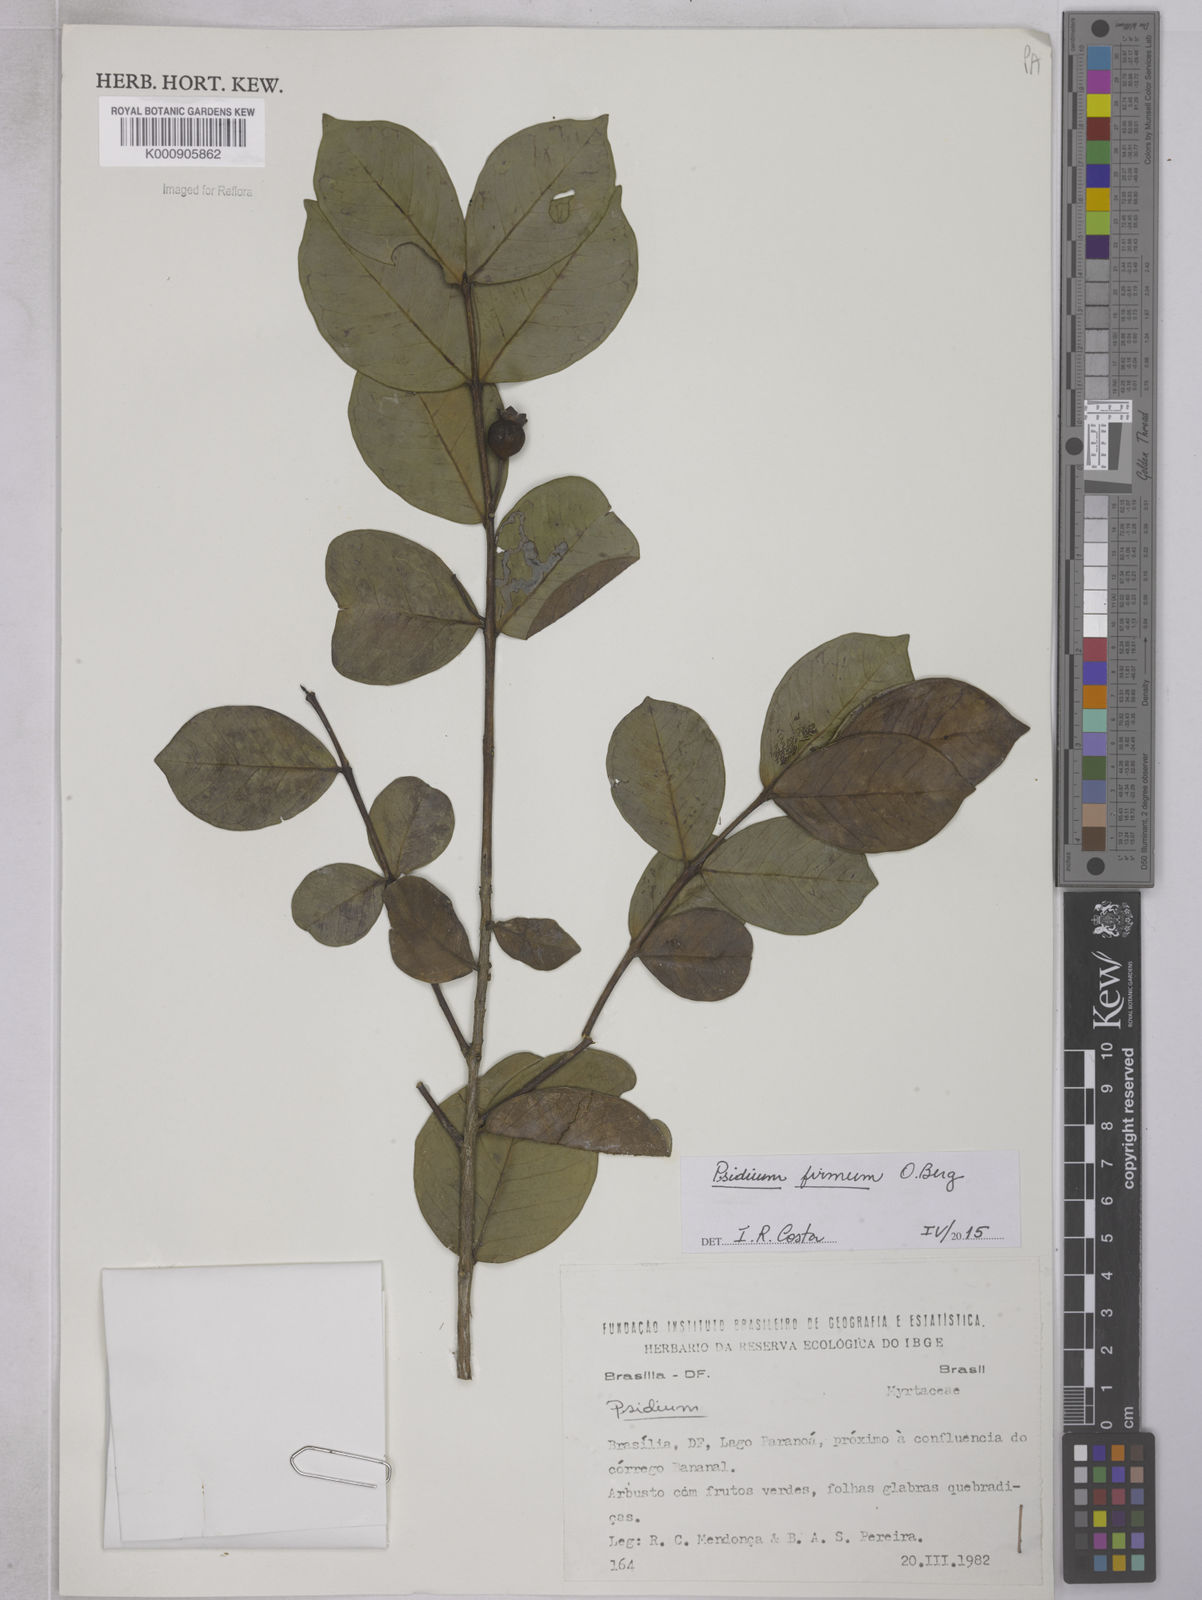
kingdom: Plantae
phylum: Tracheophyta
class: Magnoliopsida
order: Myrtales
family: Myrtaceae
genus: Psidium
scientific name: Psidium firmum
